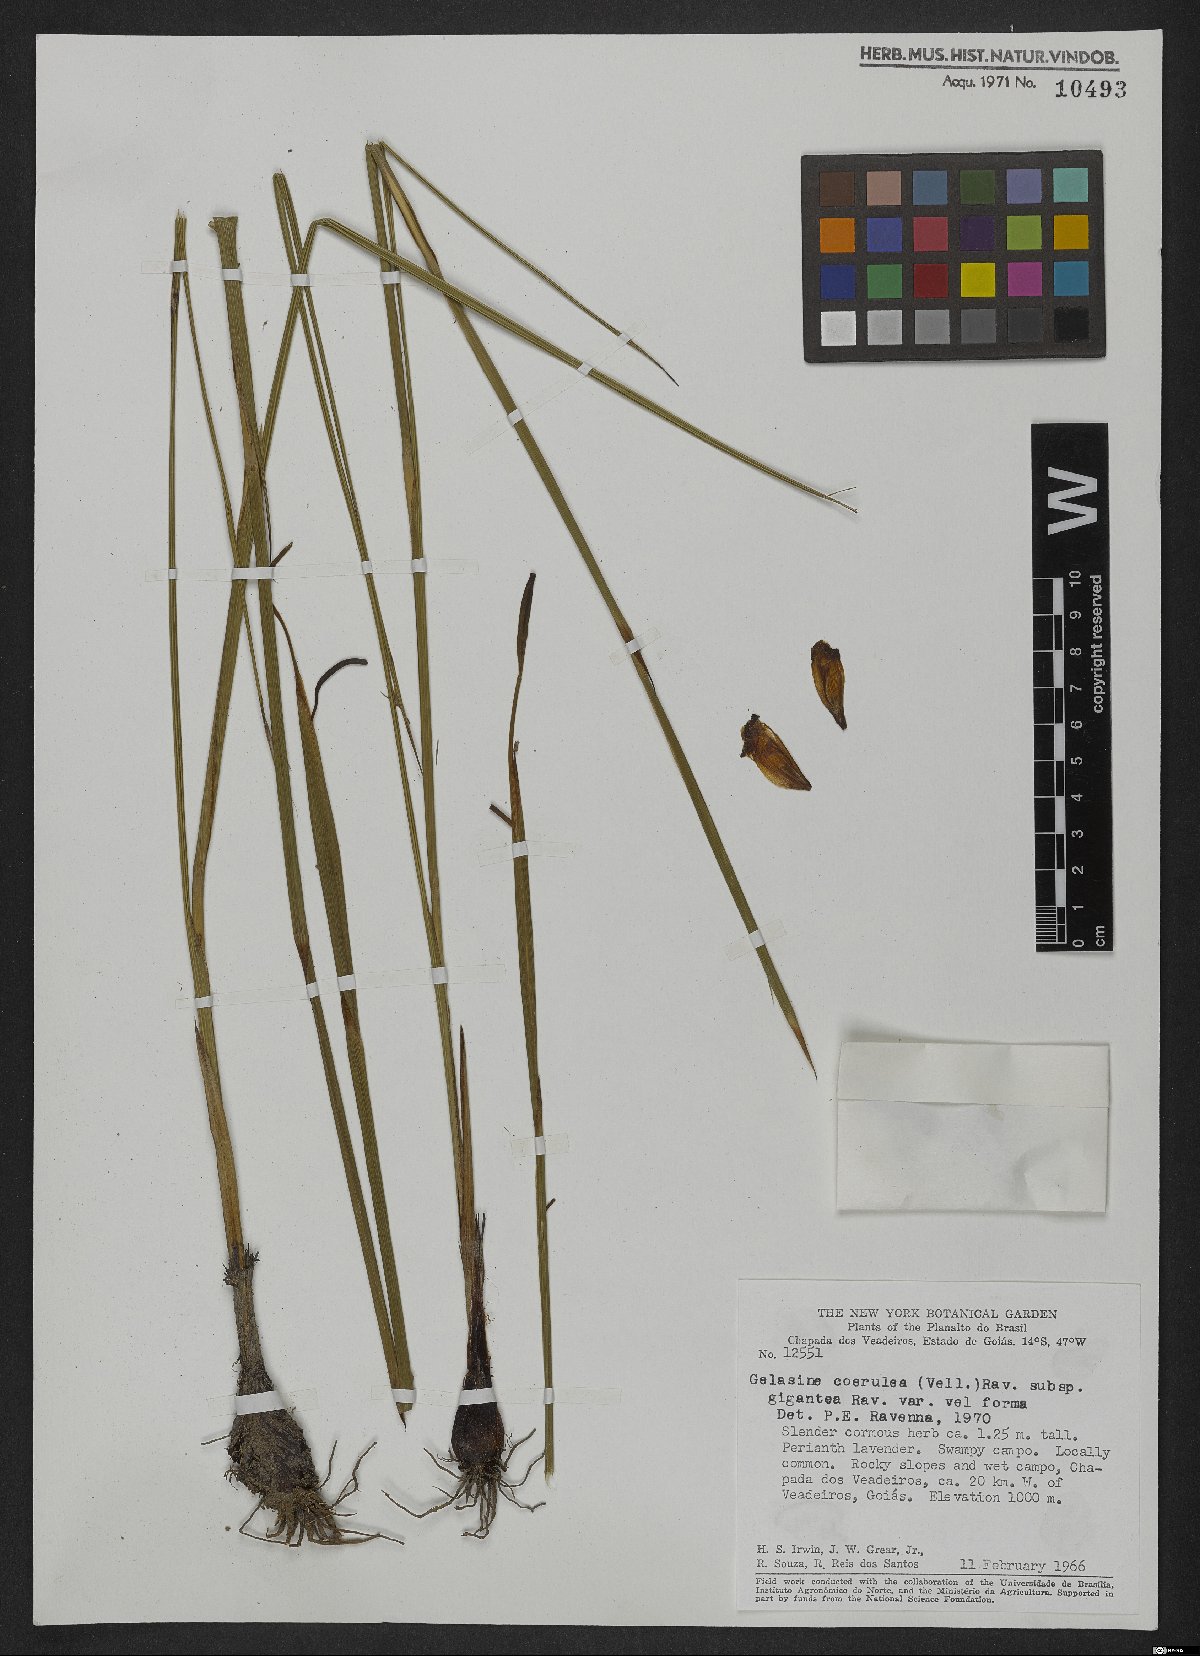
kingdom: Plantae
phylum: Tracheophyta
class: Liliopsida
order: Asparagales
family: Iridaceae
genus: Gelasine
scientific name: Gelasine coerulea
